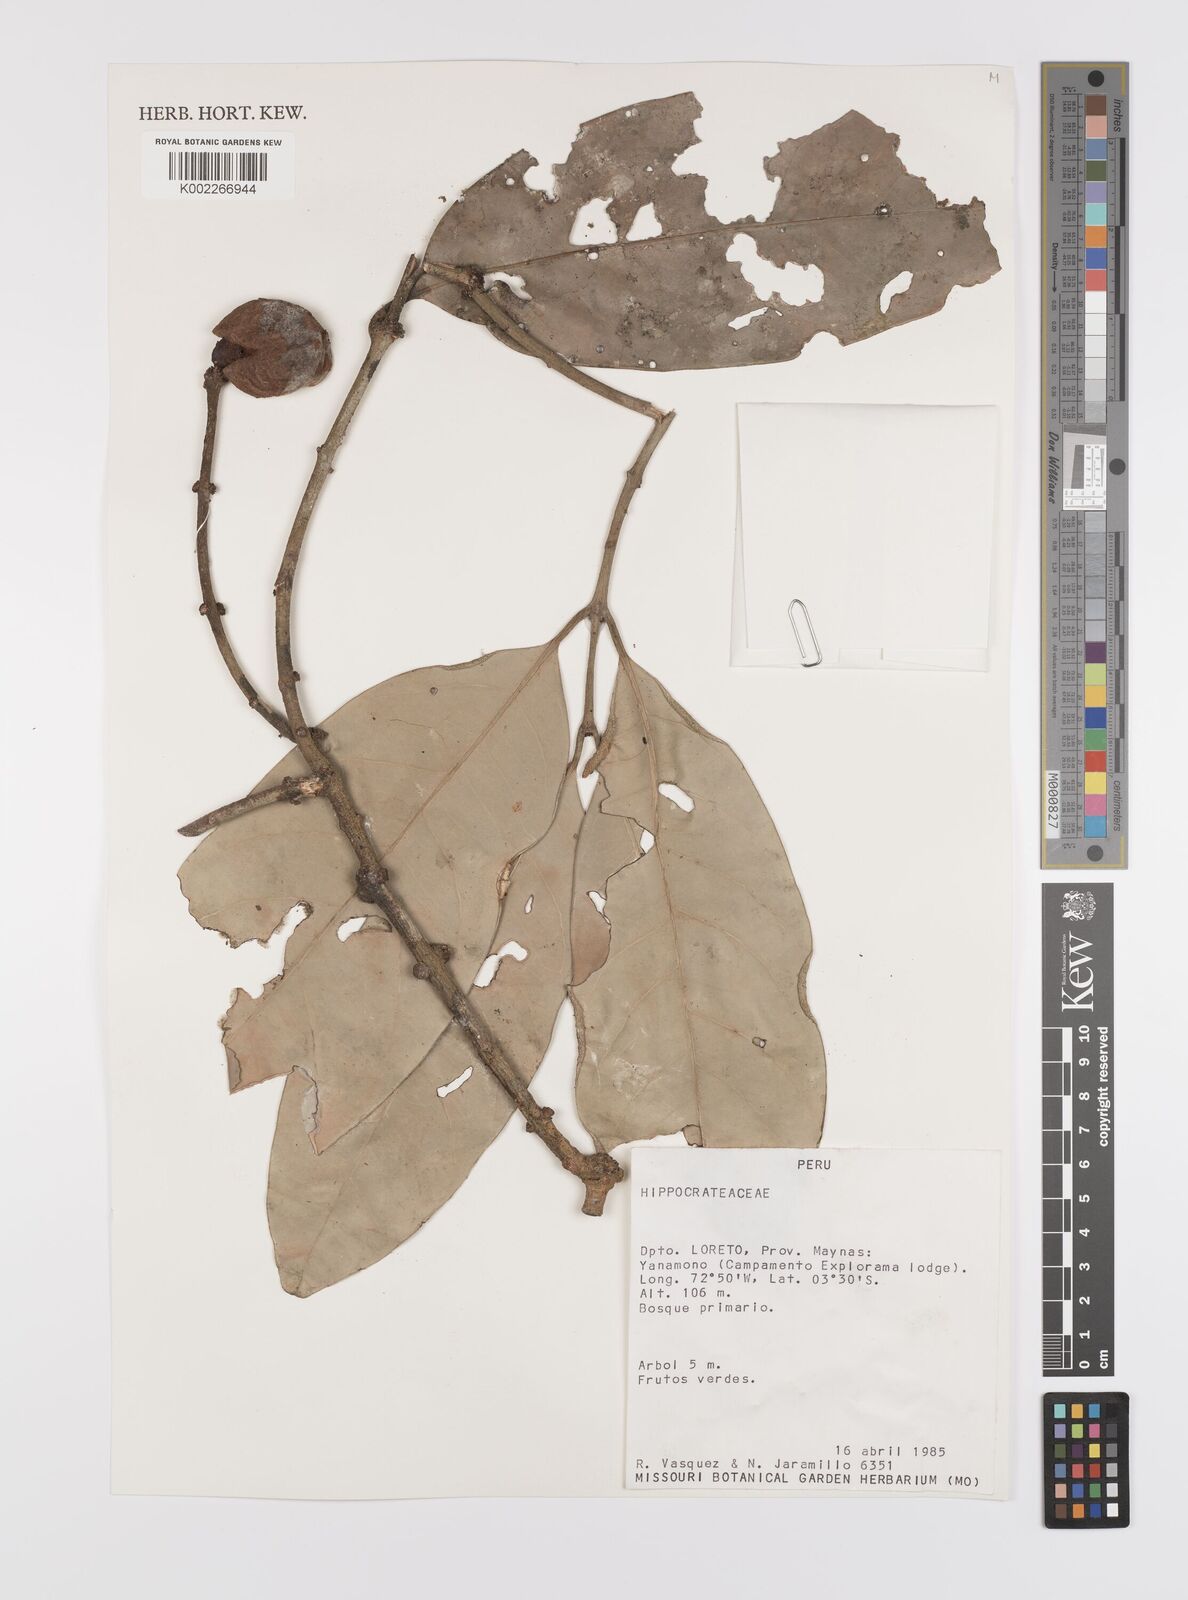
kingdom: Plantae
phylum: Tracheophyta
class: Magnoliopsida
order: Celastrales
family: Celastraceae
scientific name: Celastraceae
